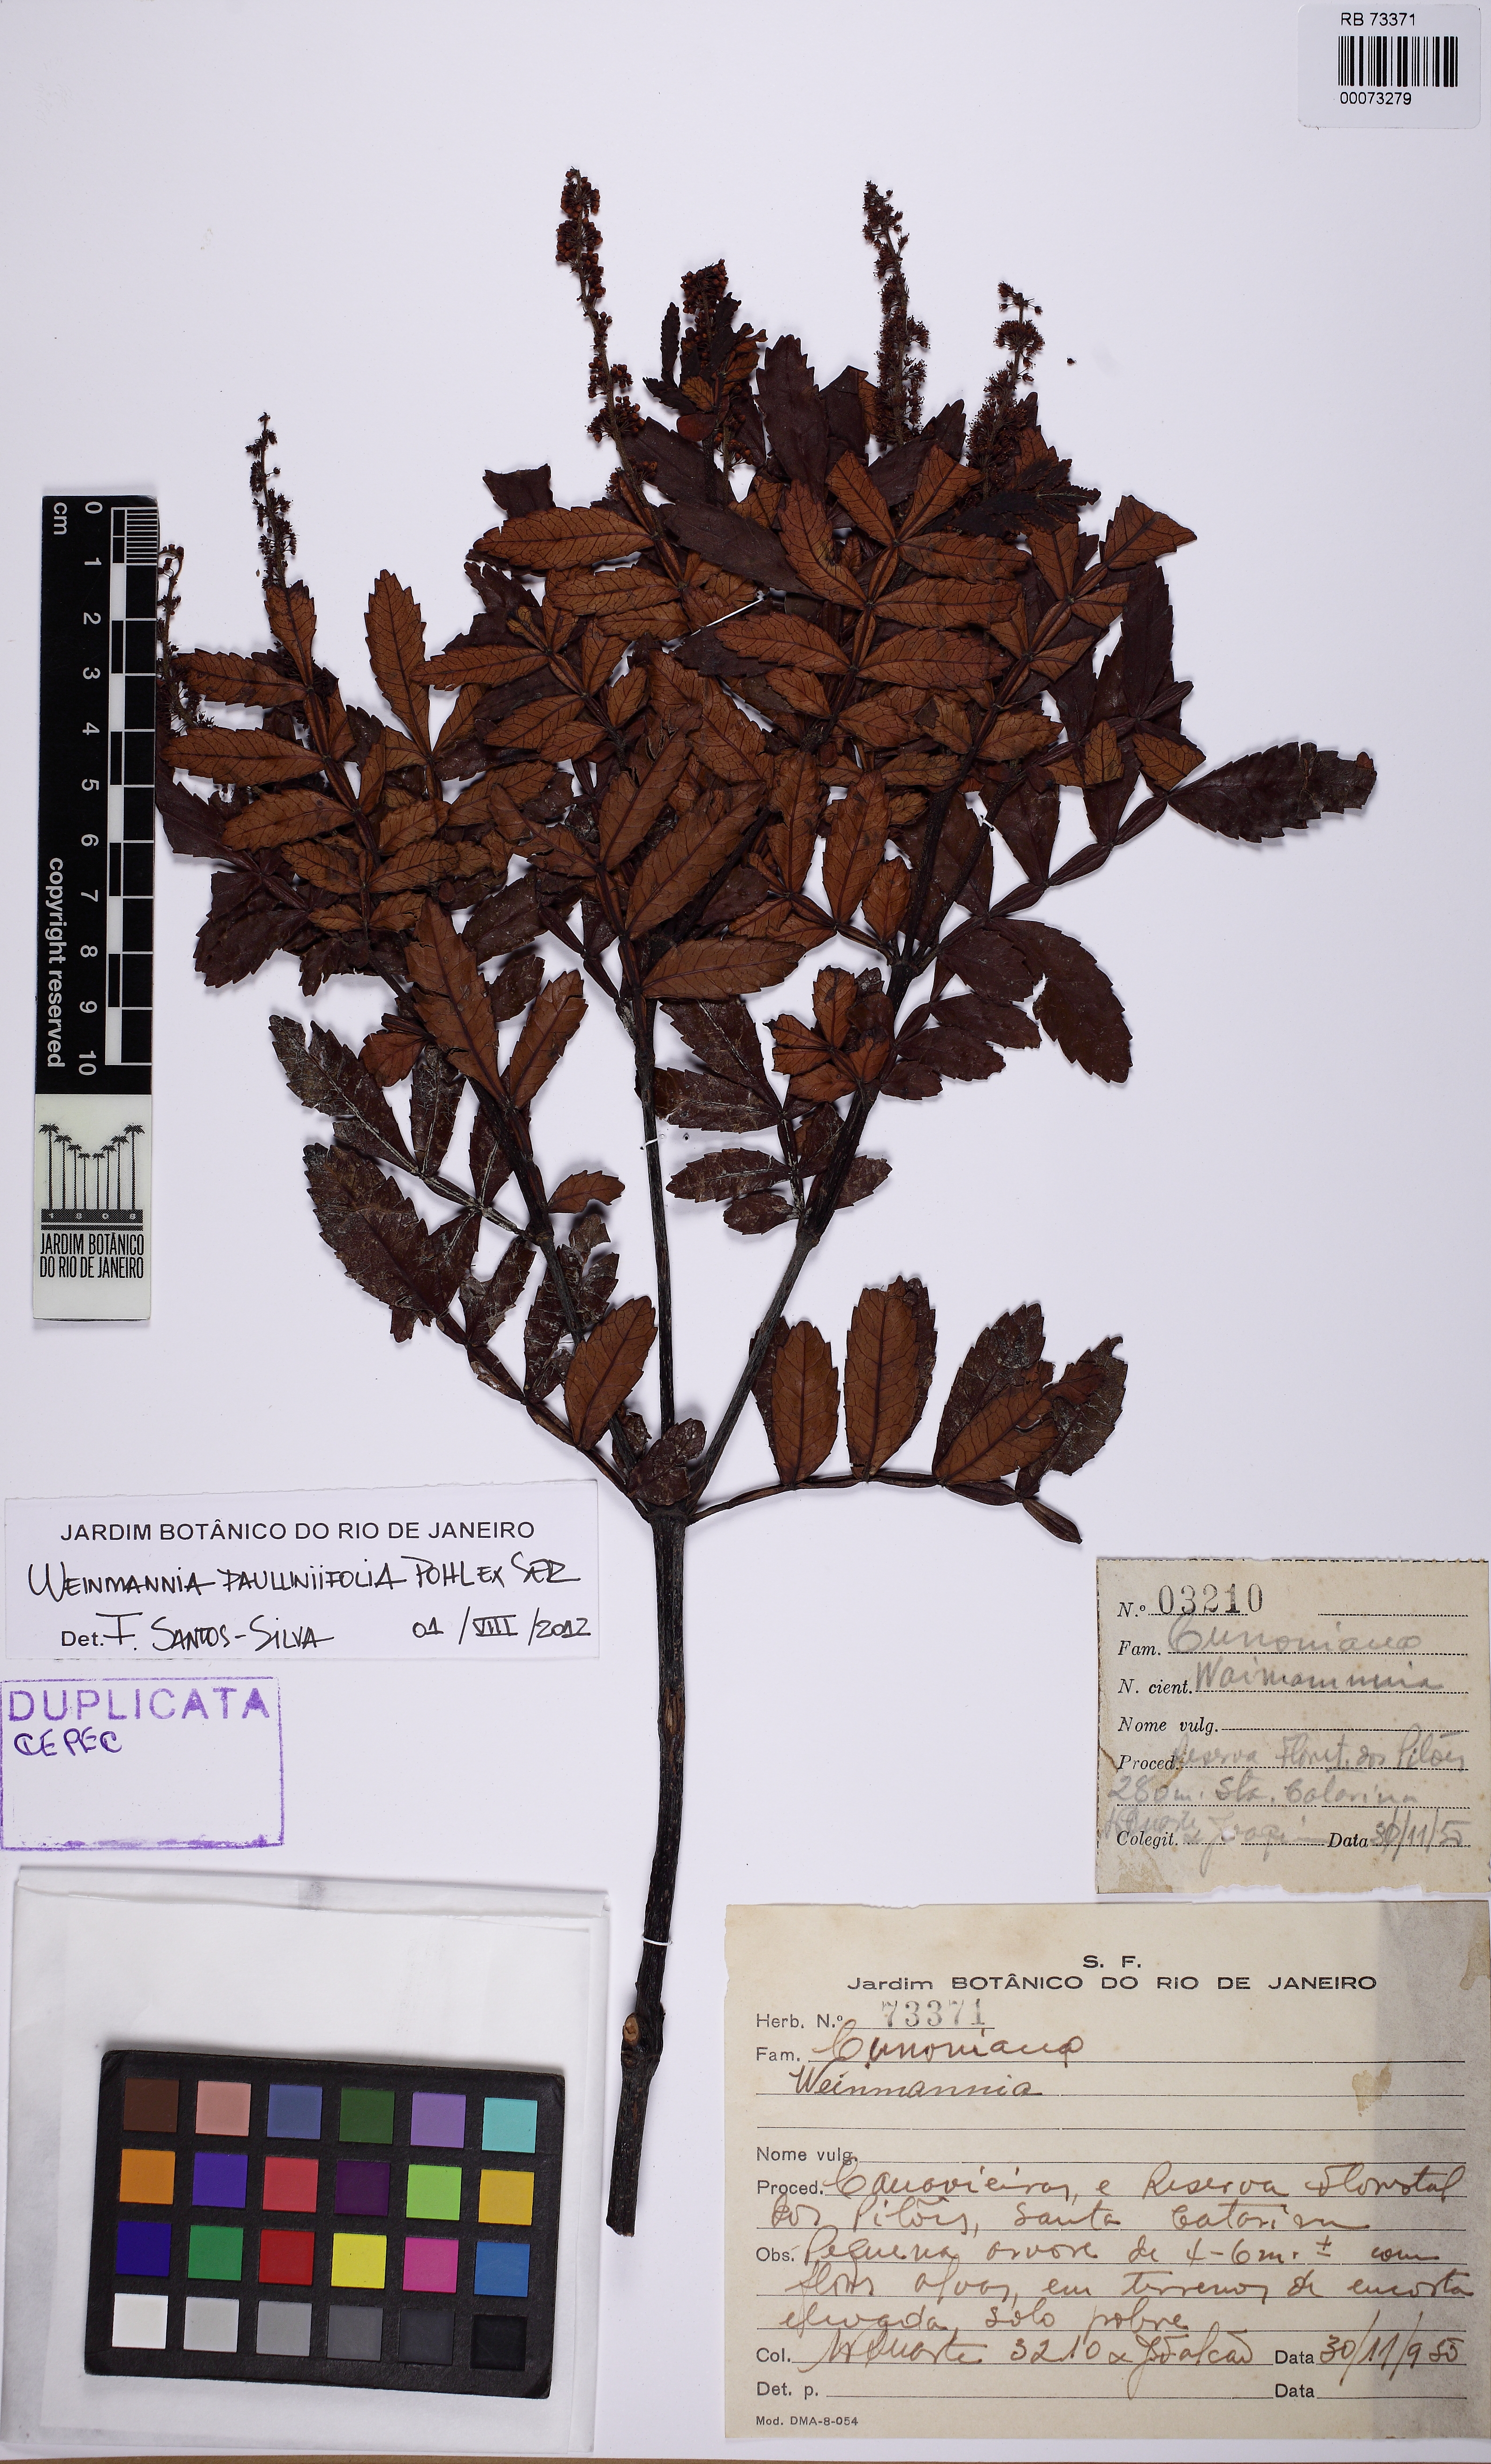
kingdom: Plantae
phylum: Tracheophyta
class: Magnoliopsida
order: Oxalidales
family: Cunoniaceae
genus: Weinmannia
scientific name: Weinmannia paullinifolia
